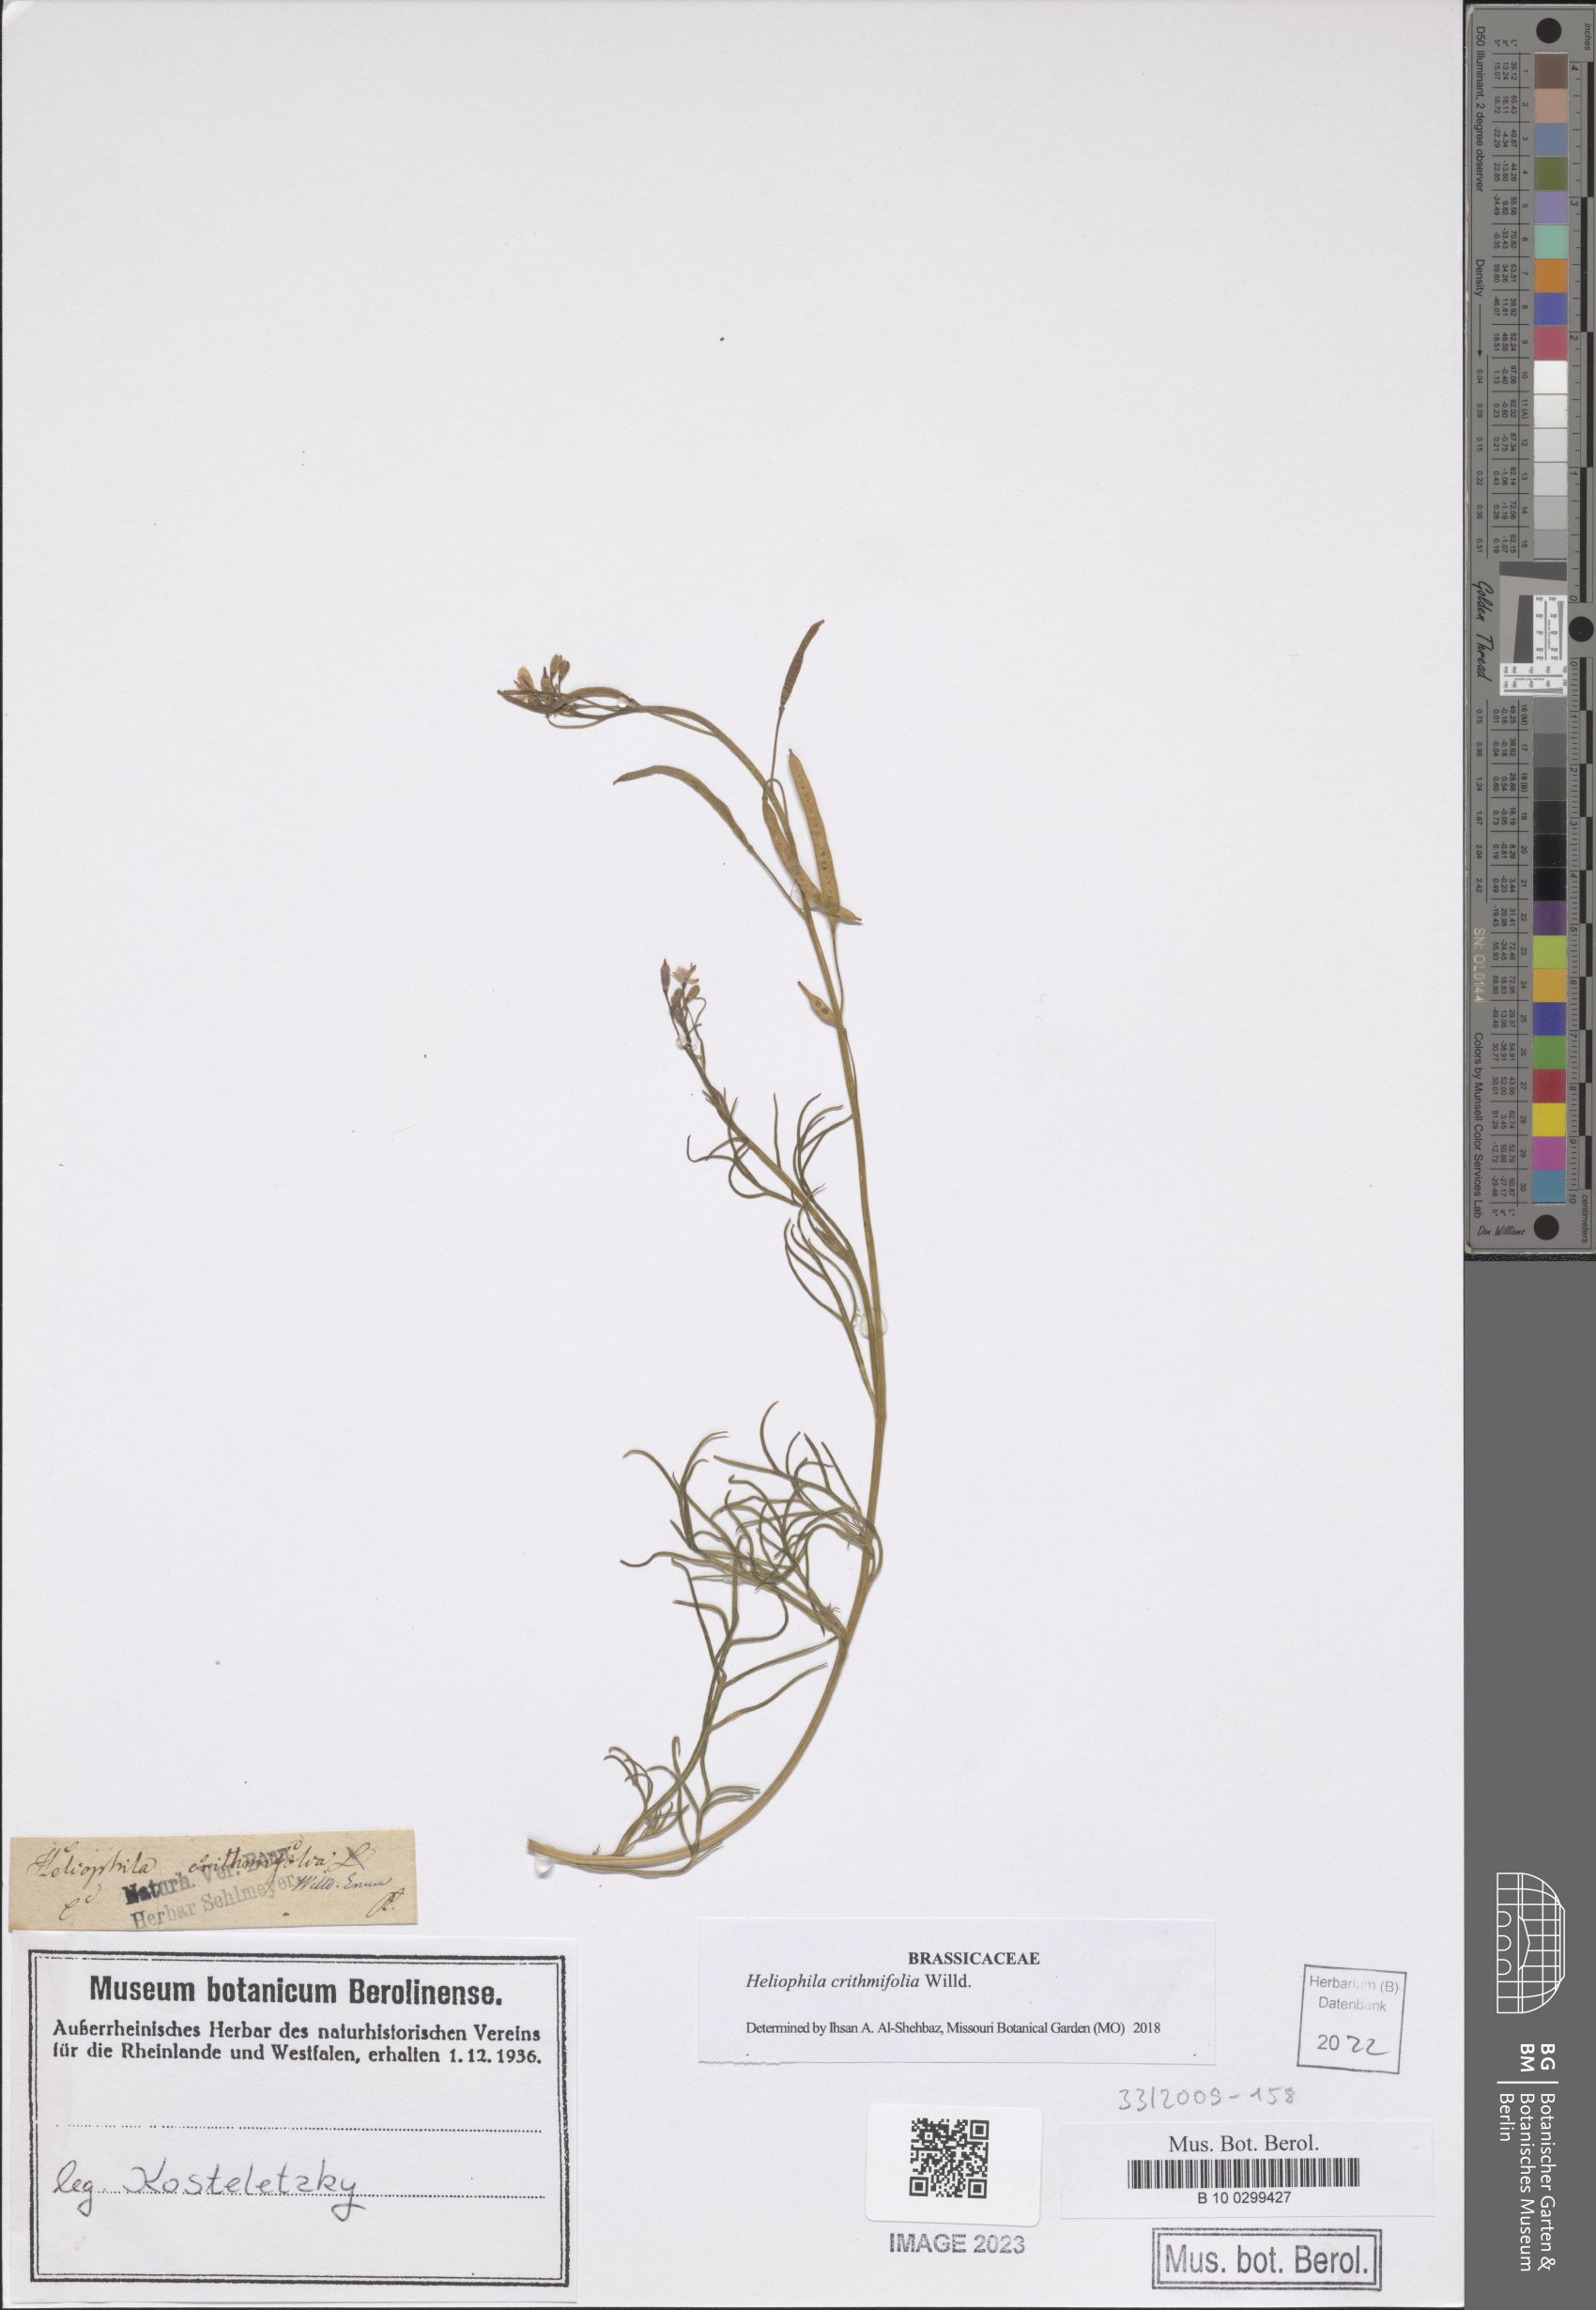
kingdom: Plantae
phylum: Tracheophyta
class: Magnoliopsida
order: Brassicales
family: Brassicaceae
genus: Heliophila
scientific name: Heliophila crithmifolia
